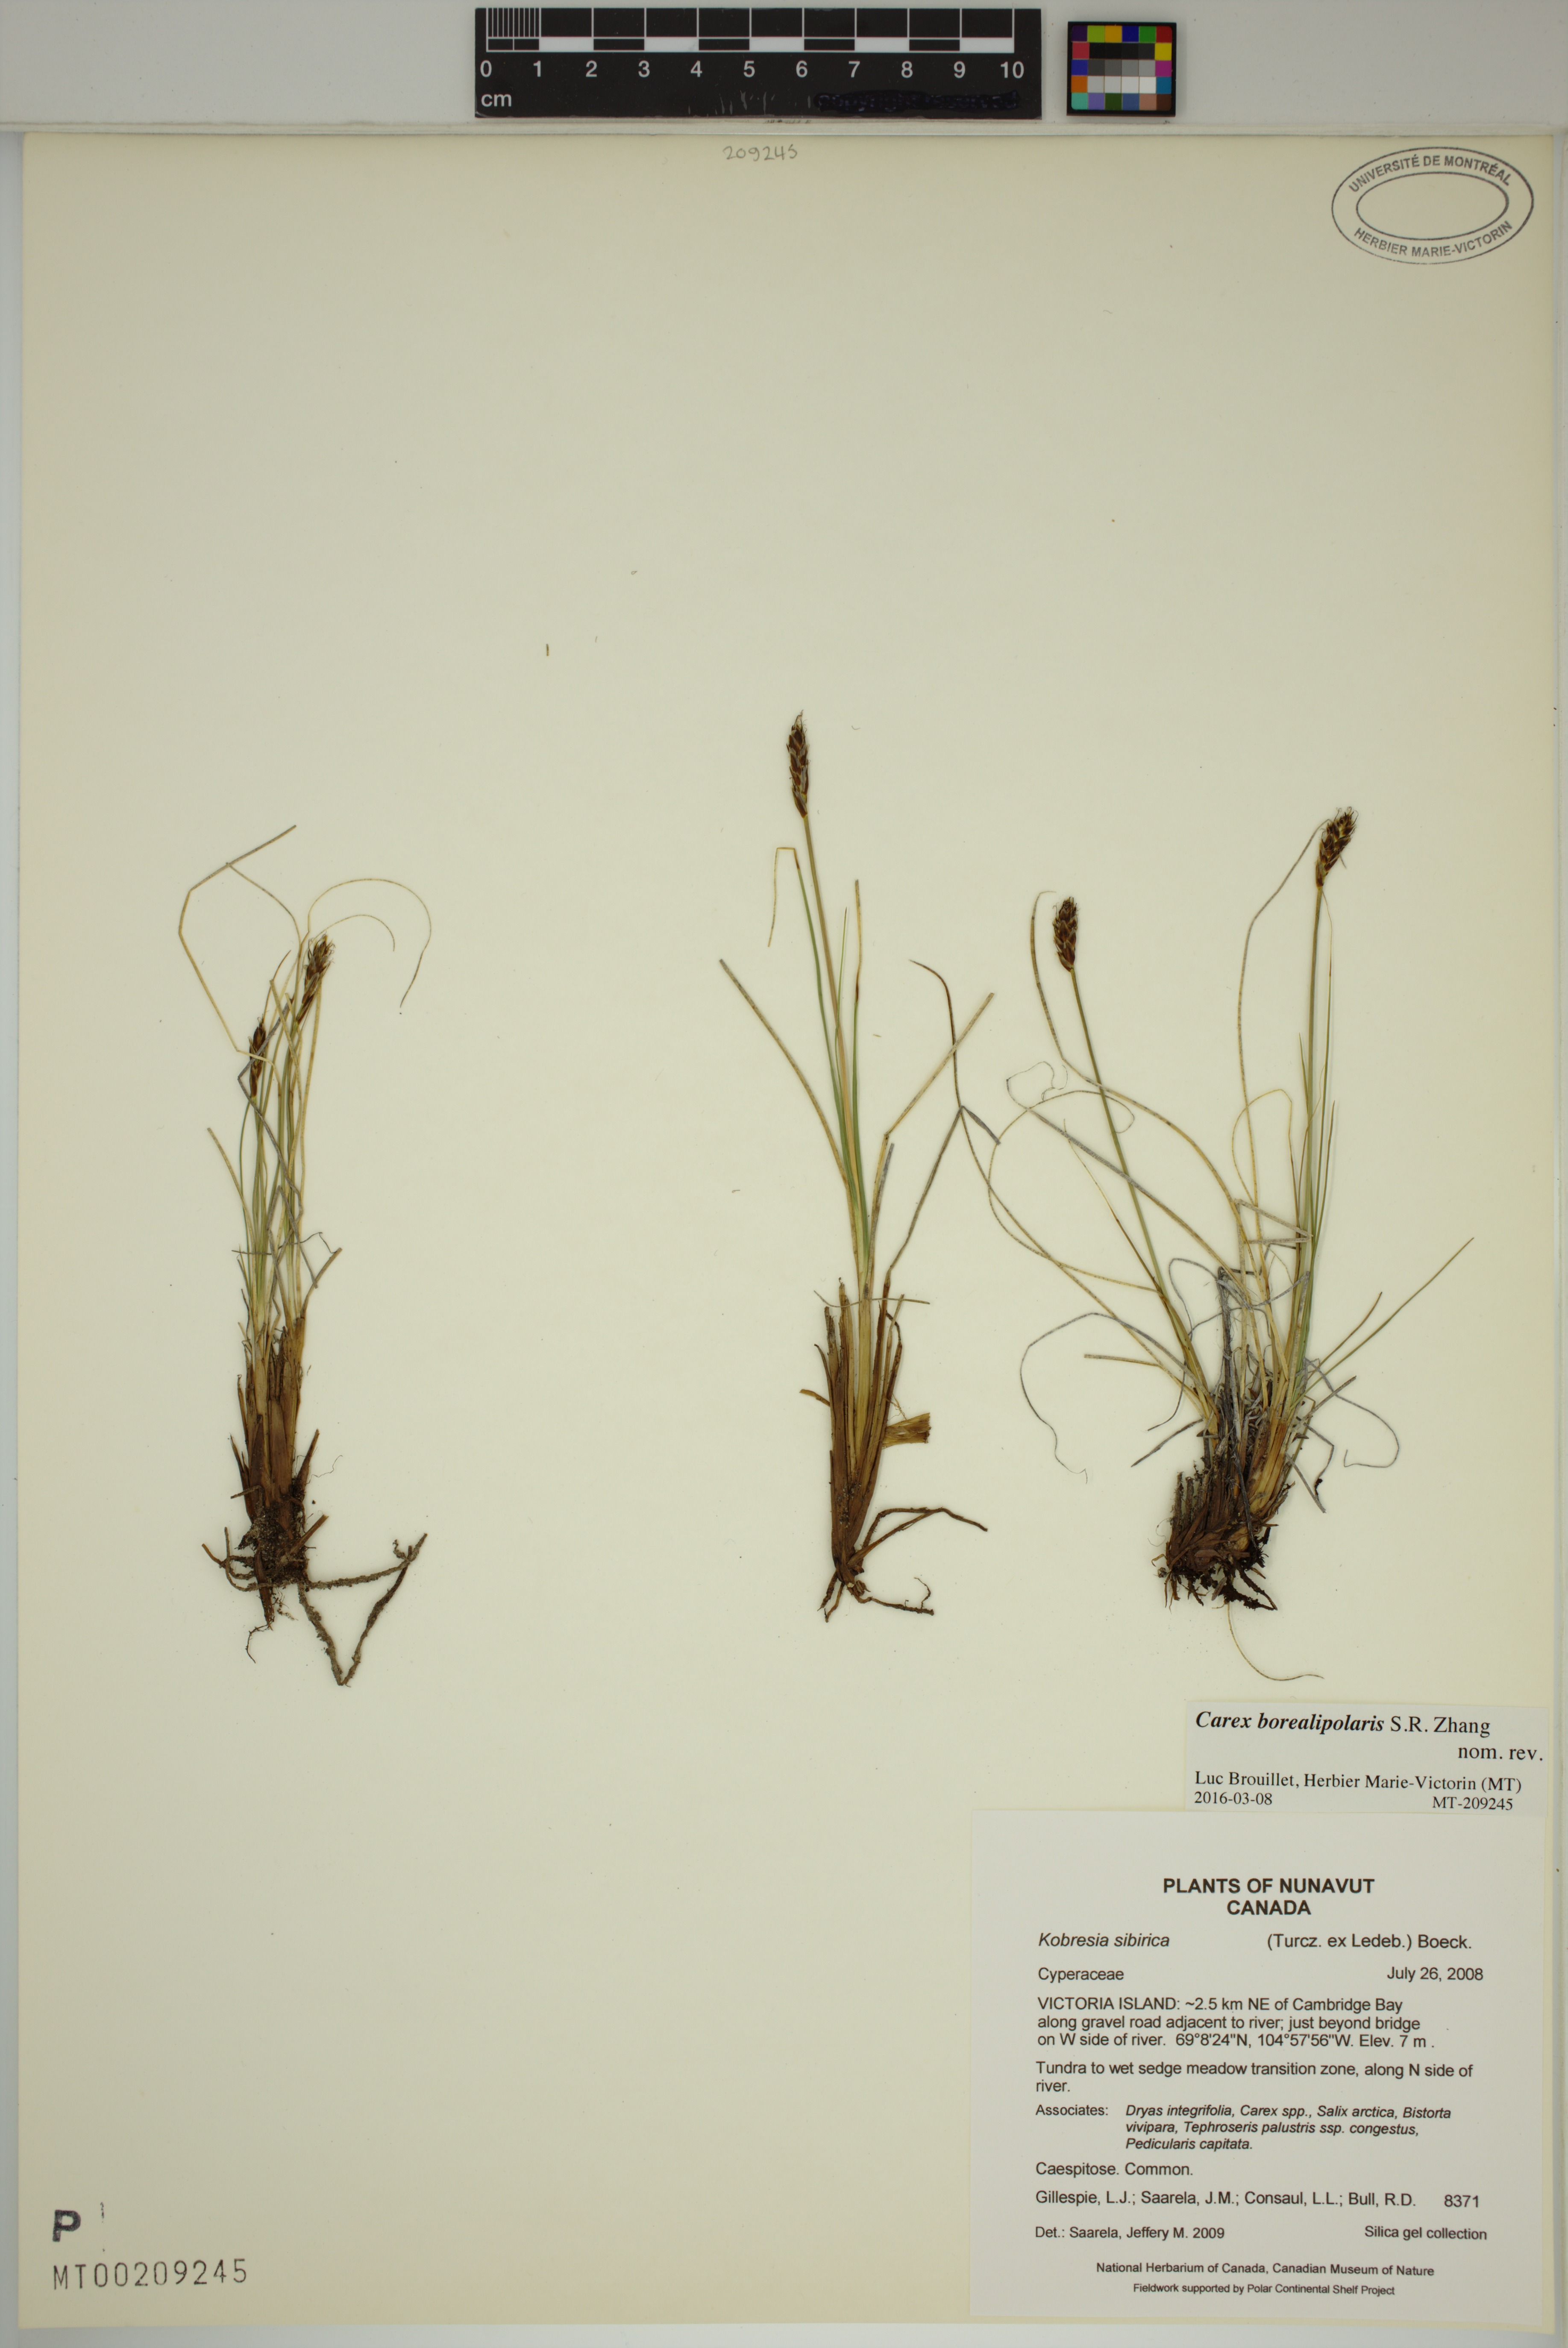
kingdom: Plantae
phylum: Tracheophyta
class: Liliopsida
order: Poales
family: Cyperaceae
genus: Carex
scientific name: Carex borealipolaris
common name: Siberian bog sedge
